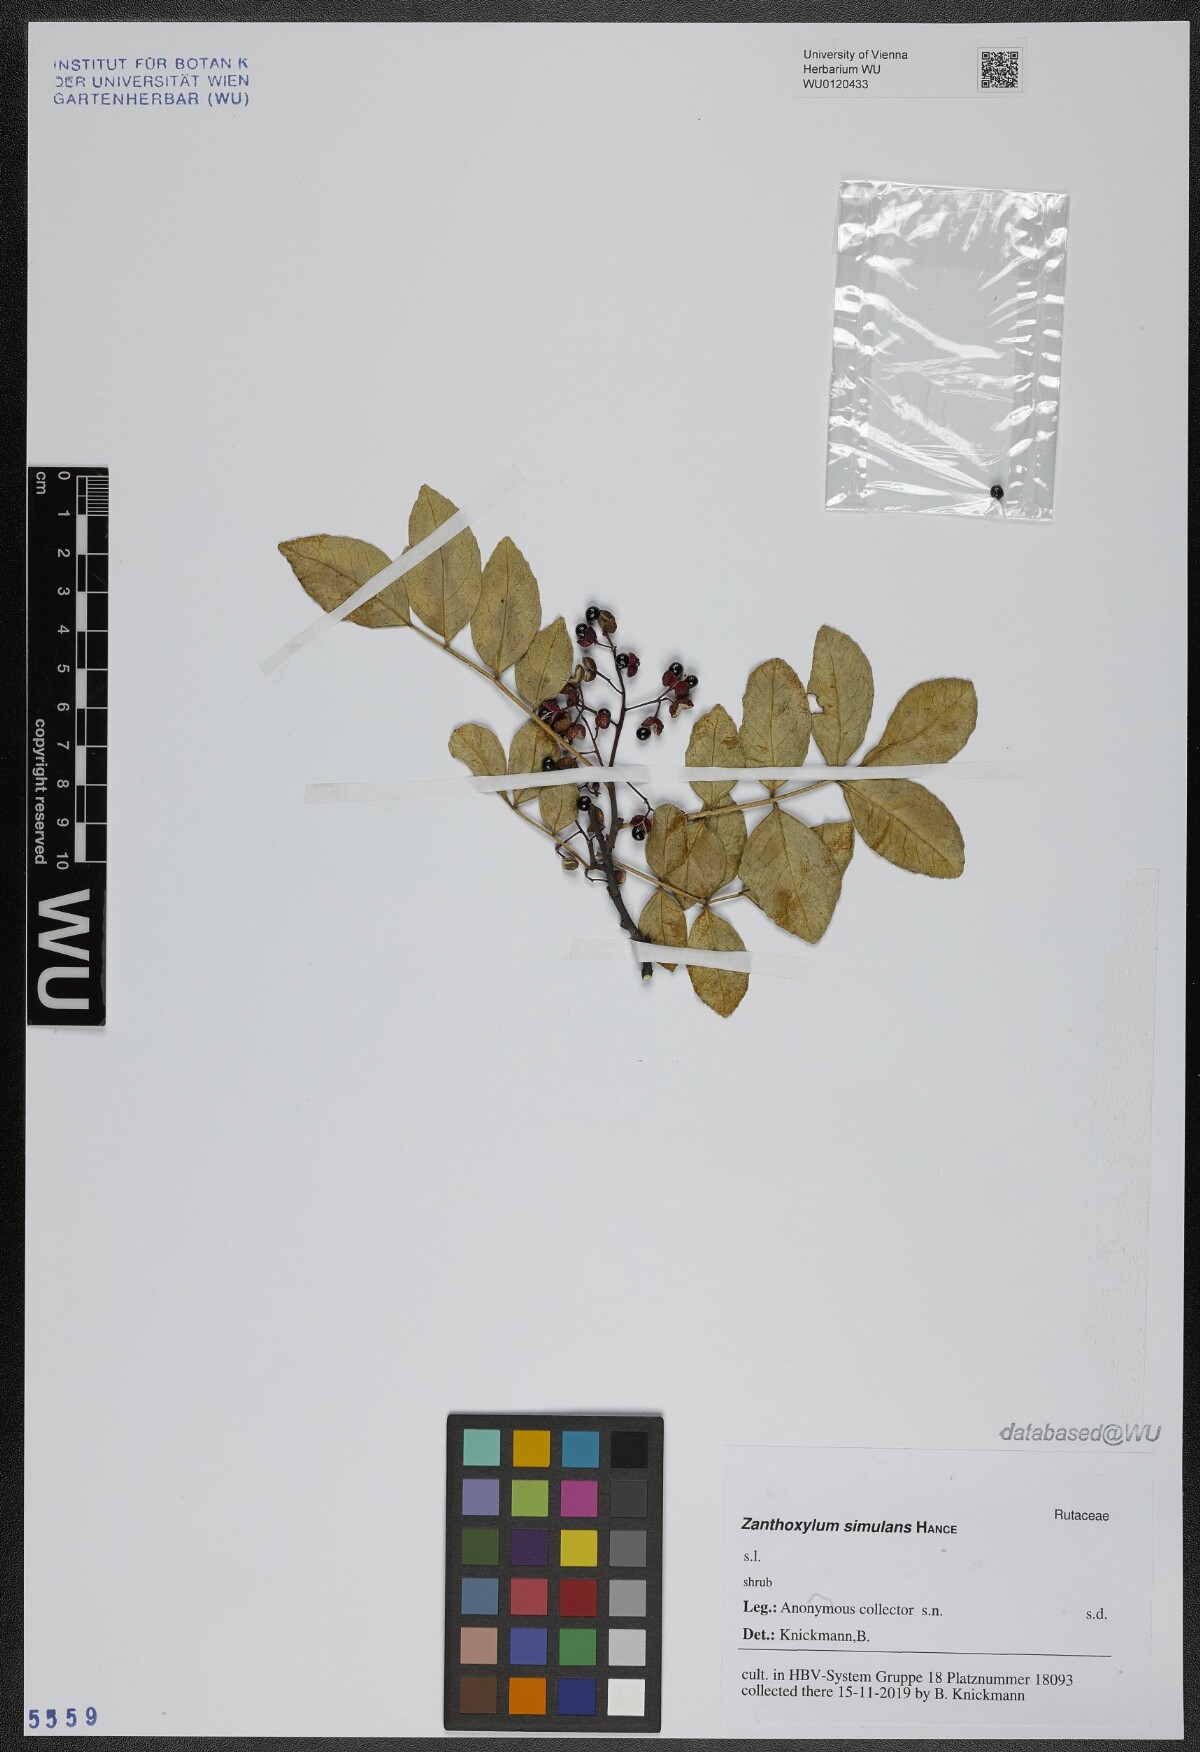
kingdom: Plantae
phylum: Tracheophyta
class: Magnoliopsida
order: Sapindales
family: Rutaceae
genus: Zanthoxylum
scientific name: Zanthoxylum simulans
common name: Chinese-pepper
